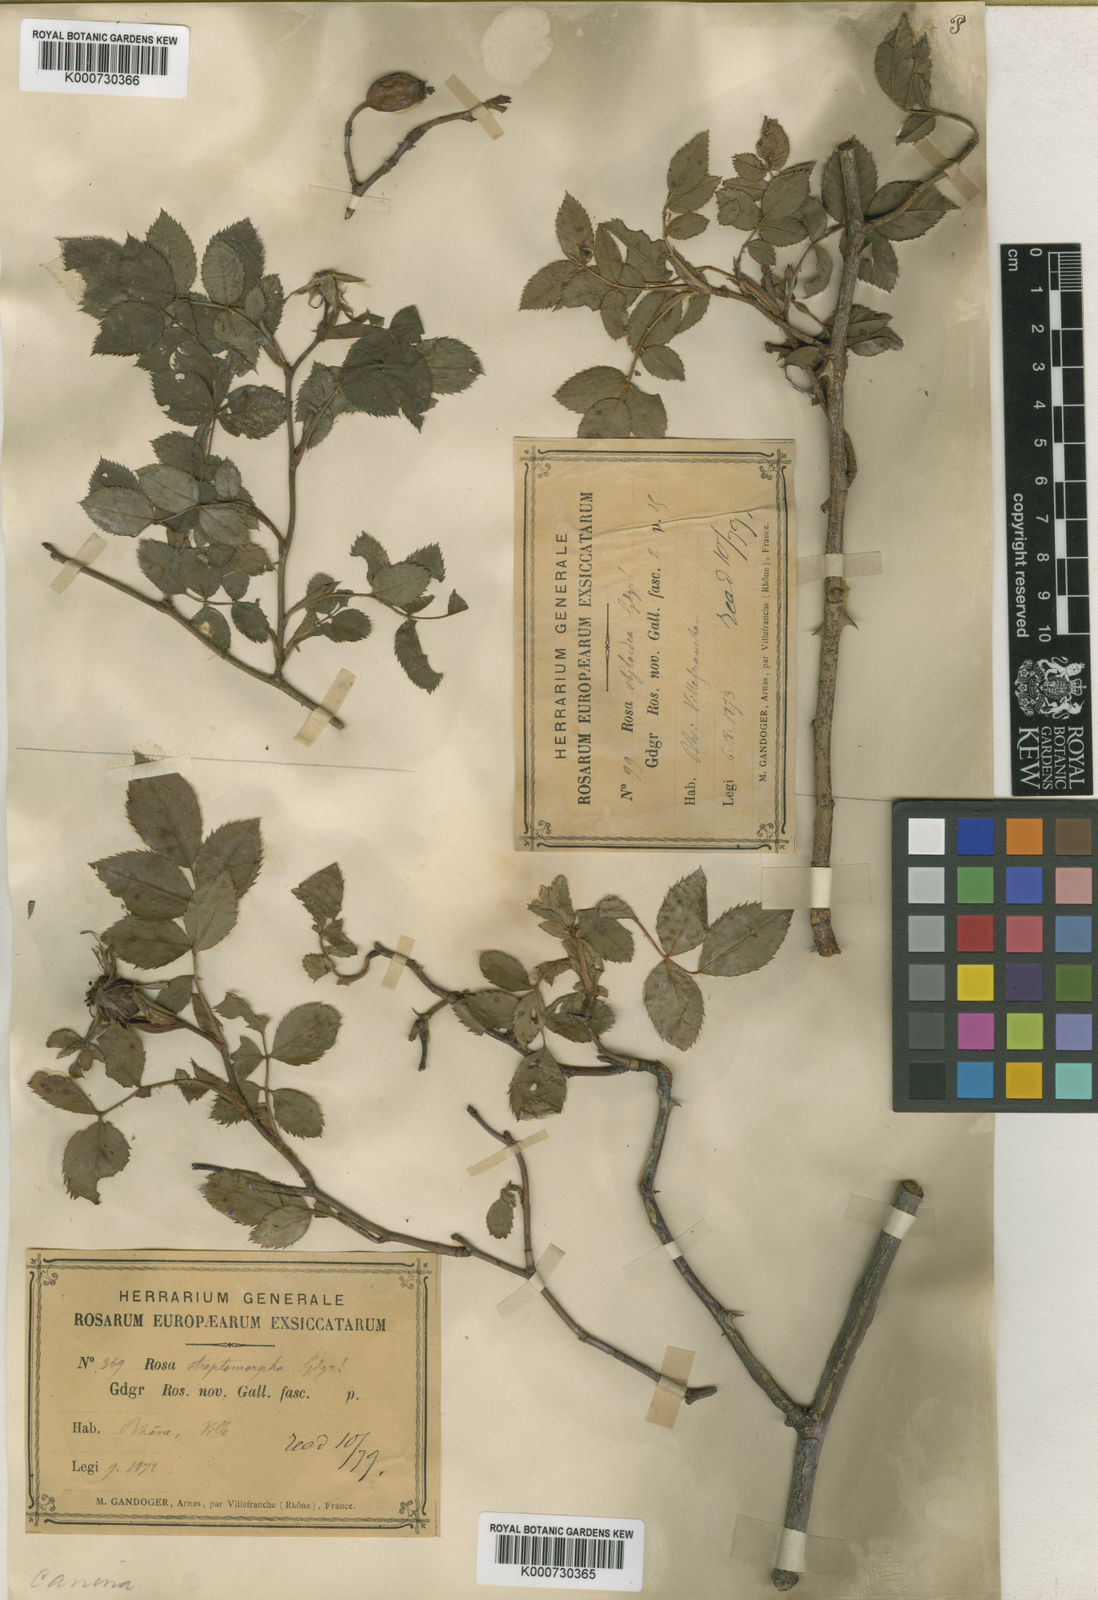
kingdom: Plantae
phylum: Tracheophyta
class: Magnoliopsida
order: Rosales
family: Rosaceae
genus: Rosa
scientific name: Rosa canina
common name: Dog rose
